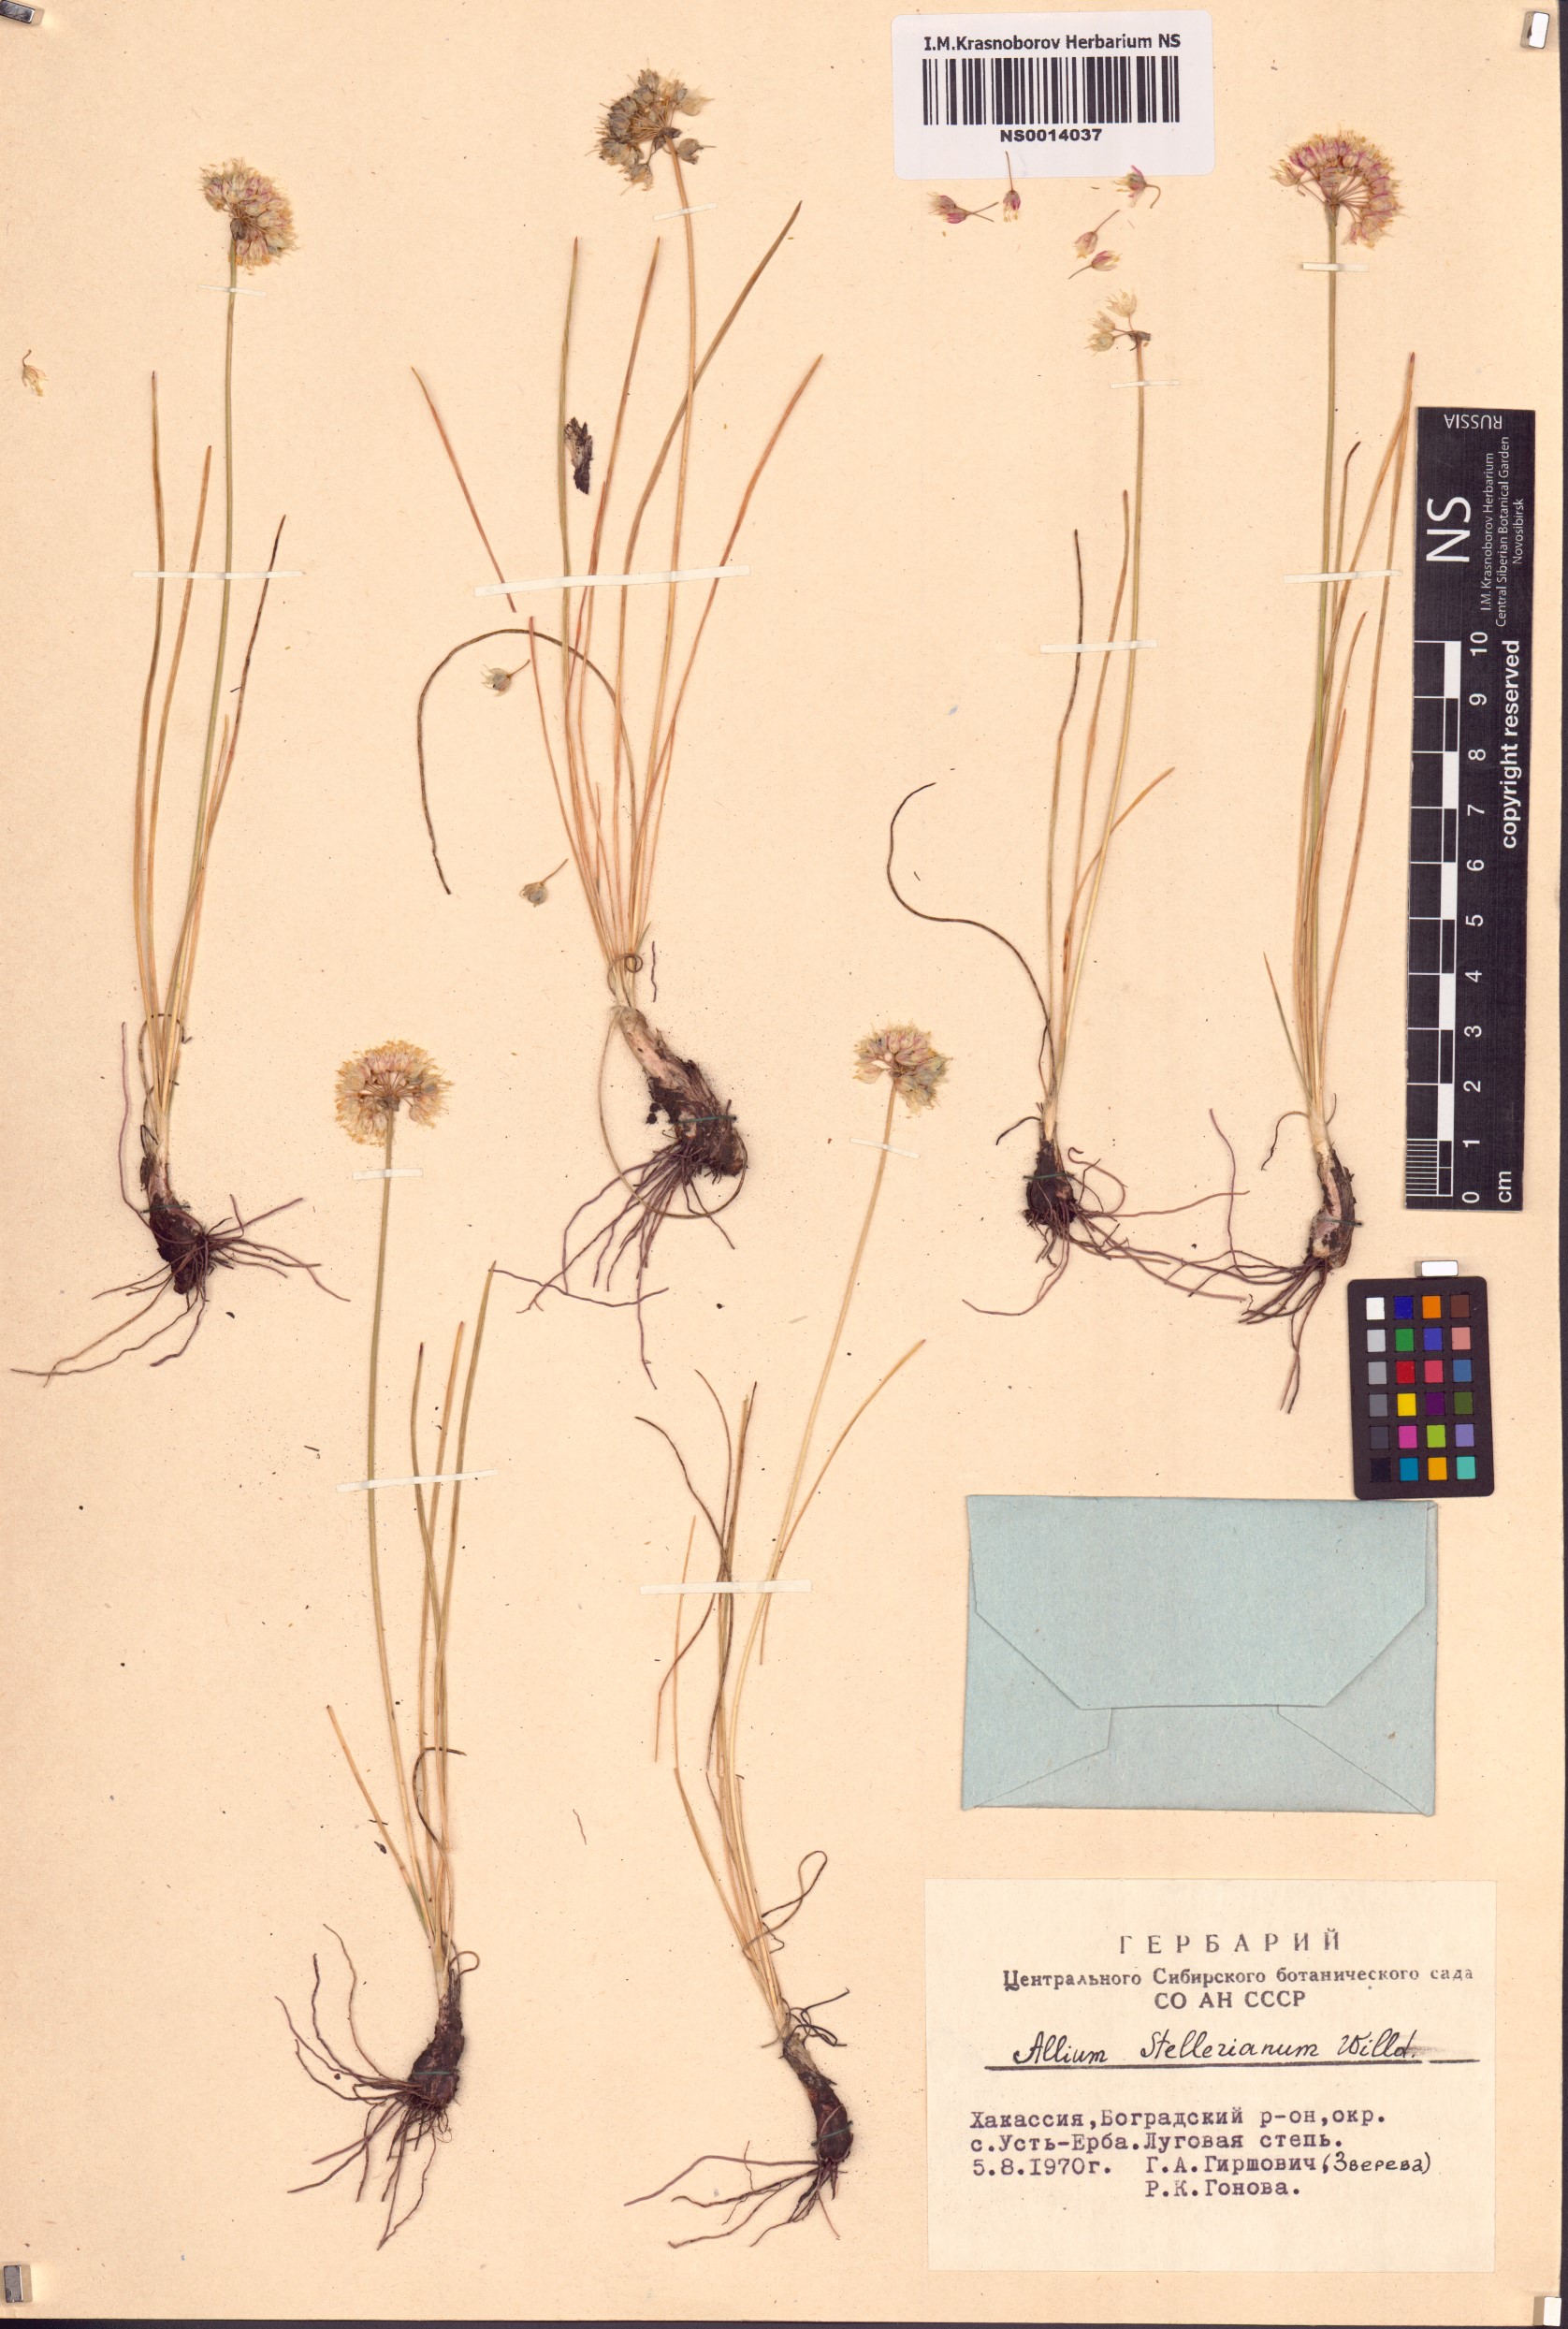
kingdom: Plantae
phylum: Tracheophyta
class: Liliopsida
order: Asparagales
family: Amaryllidaceae
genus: Allium
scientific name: Allium stellerianum
